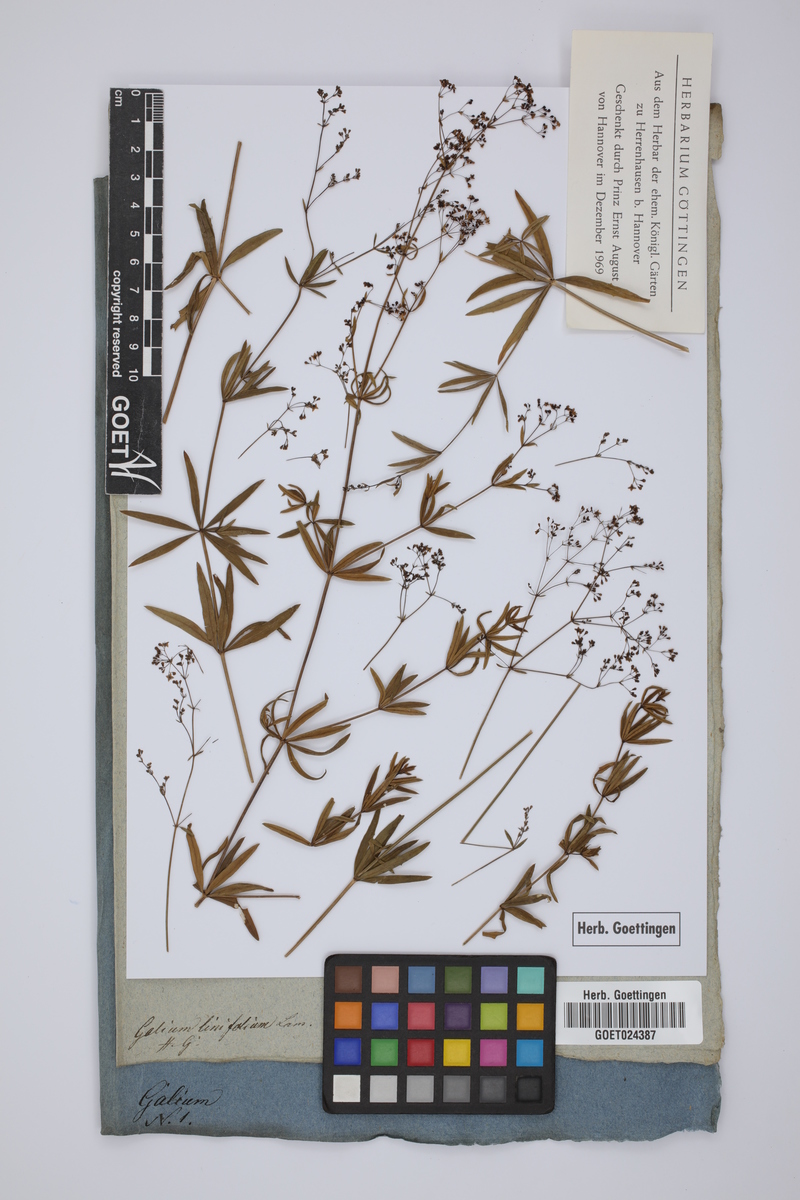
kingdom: Plantae
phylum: Tracheophyta
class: Magnoliopsida
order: Gentianales
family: Rubiaceae
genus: Galium
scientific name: Galium aristatum
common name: Awned bedstraw
